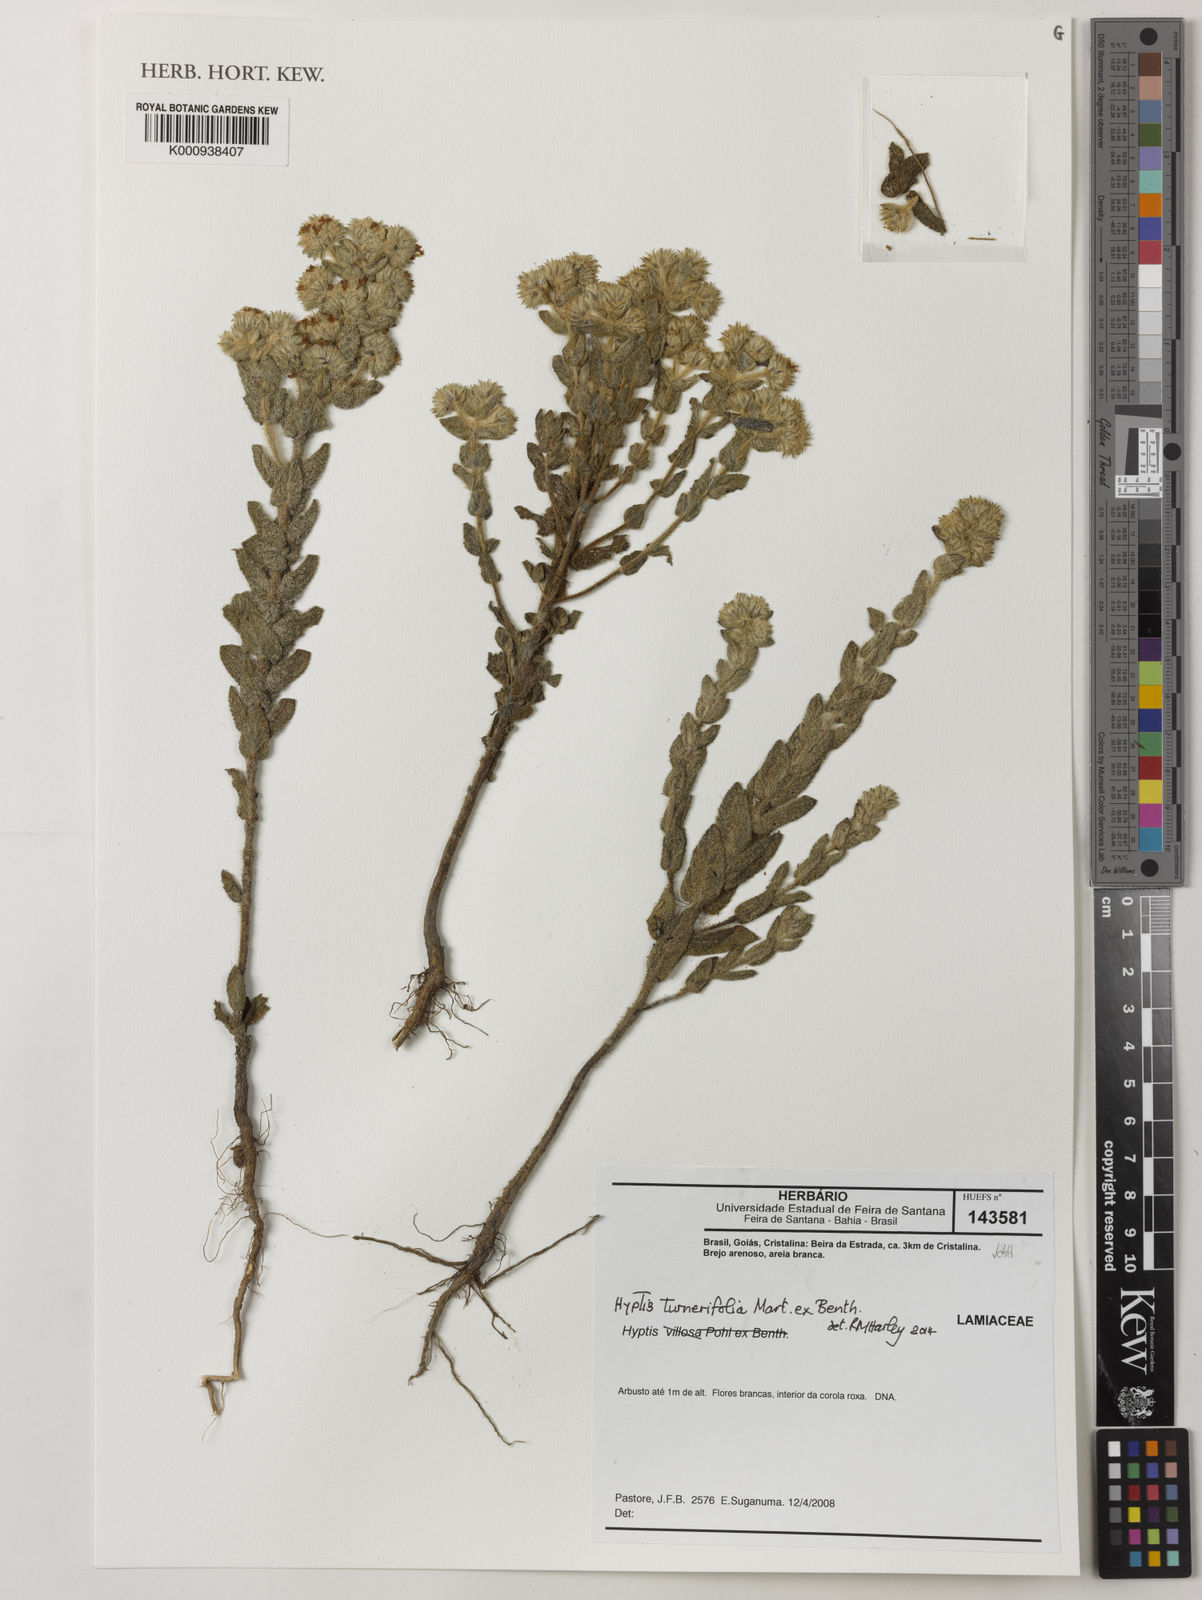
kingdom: Plantae
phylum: Tracheophyta
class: Magnoliopsida
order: Lamiales
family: Lamiaceae
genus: Hyptis
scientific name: Hyptis turnerifolia
